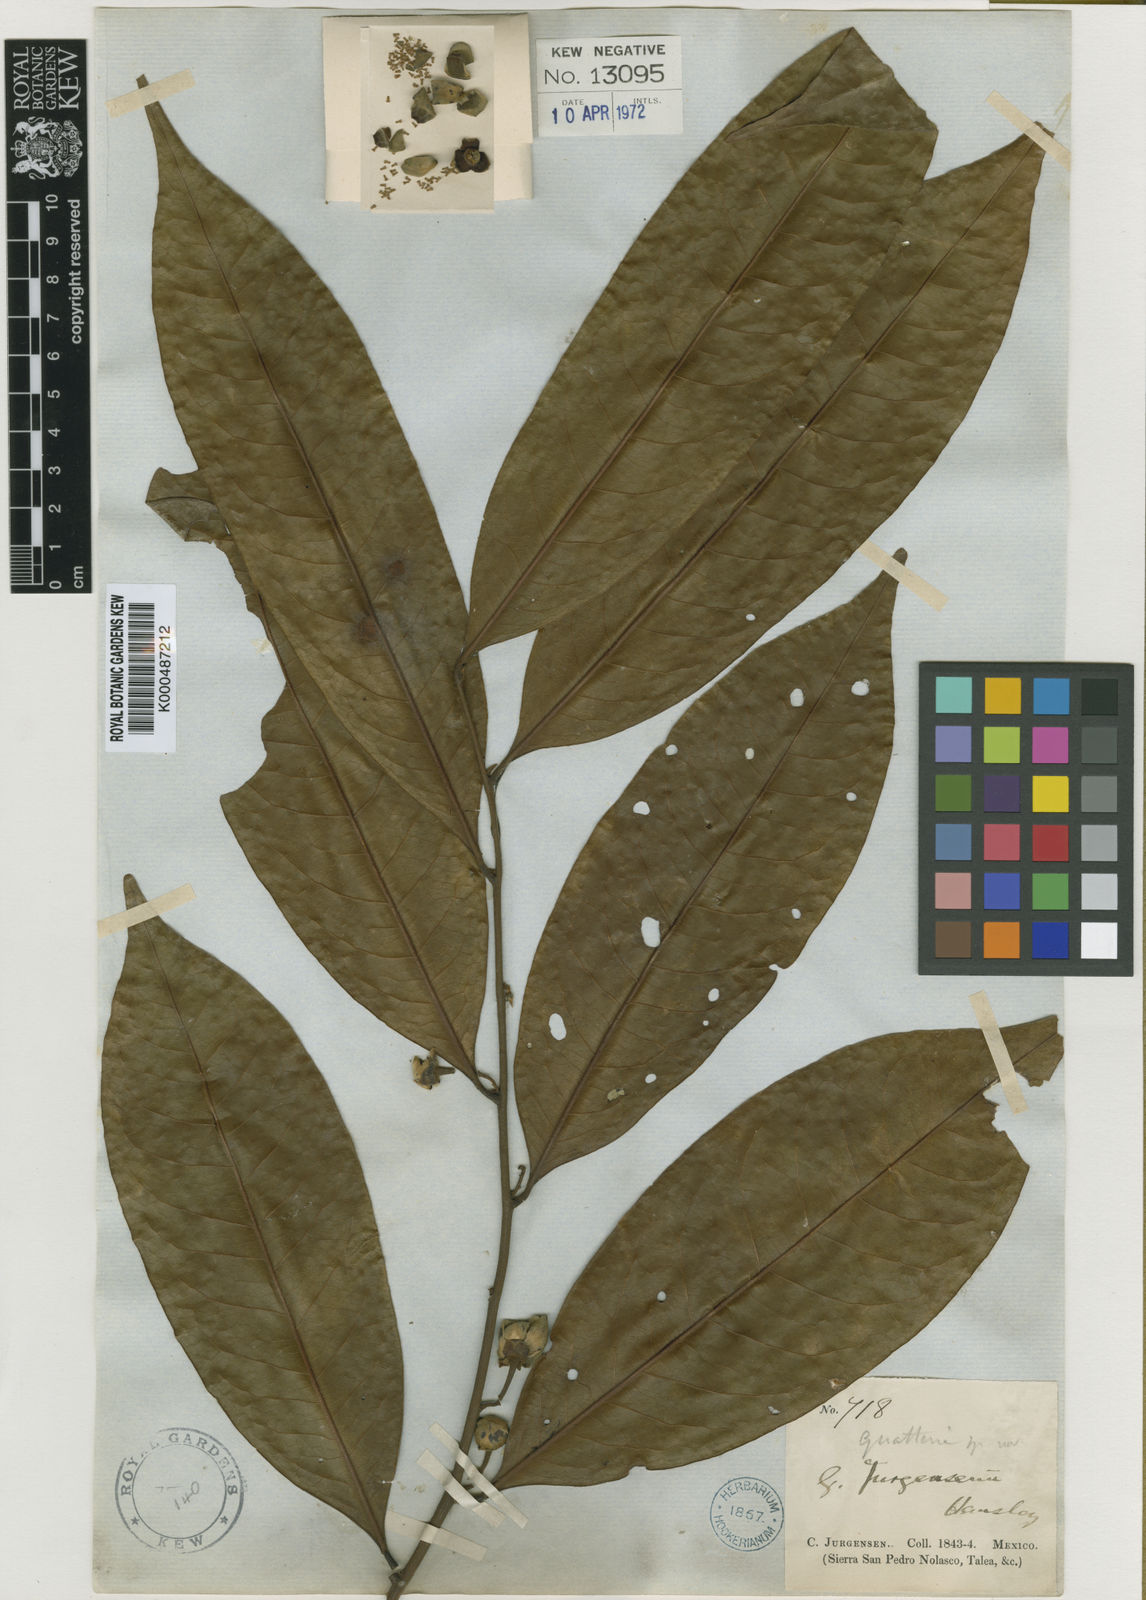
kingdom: Plantae
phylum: Tracheophyta
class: Magnoliopsida
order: Magnoliales
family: Annonaceae
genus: Guatteria
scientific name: Guatteria jurgensenii
